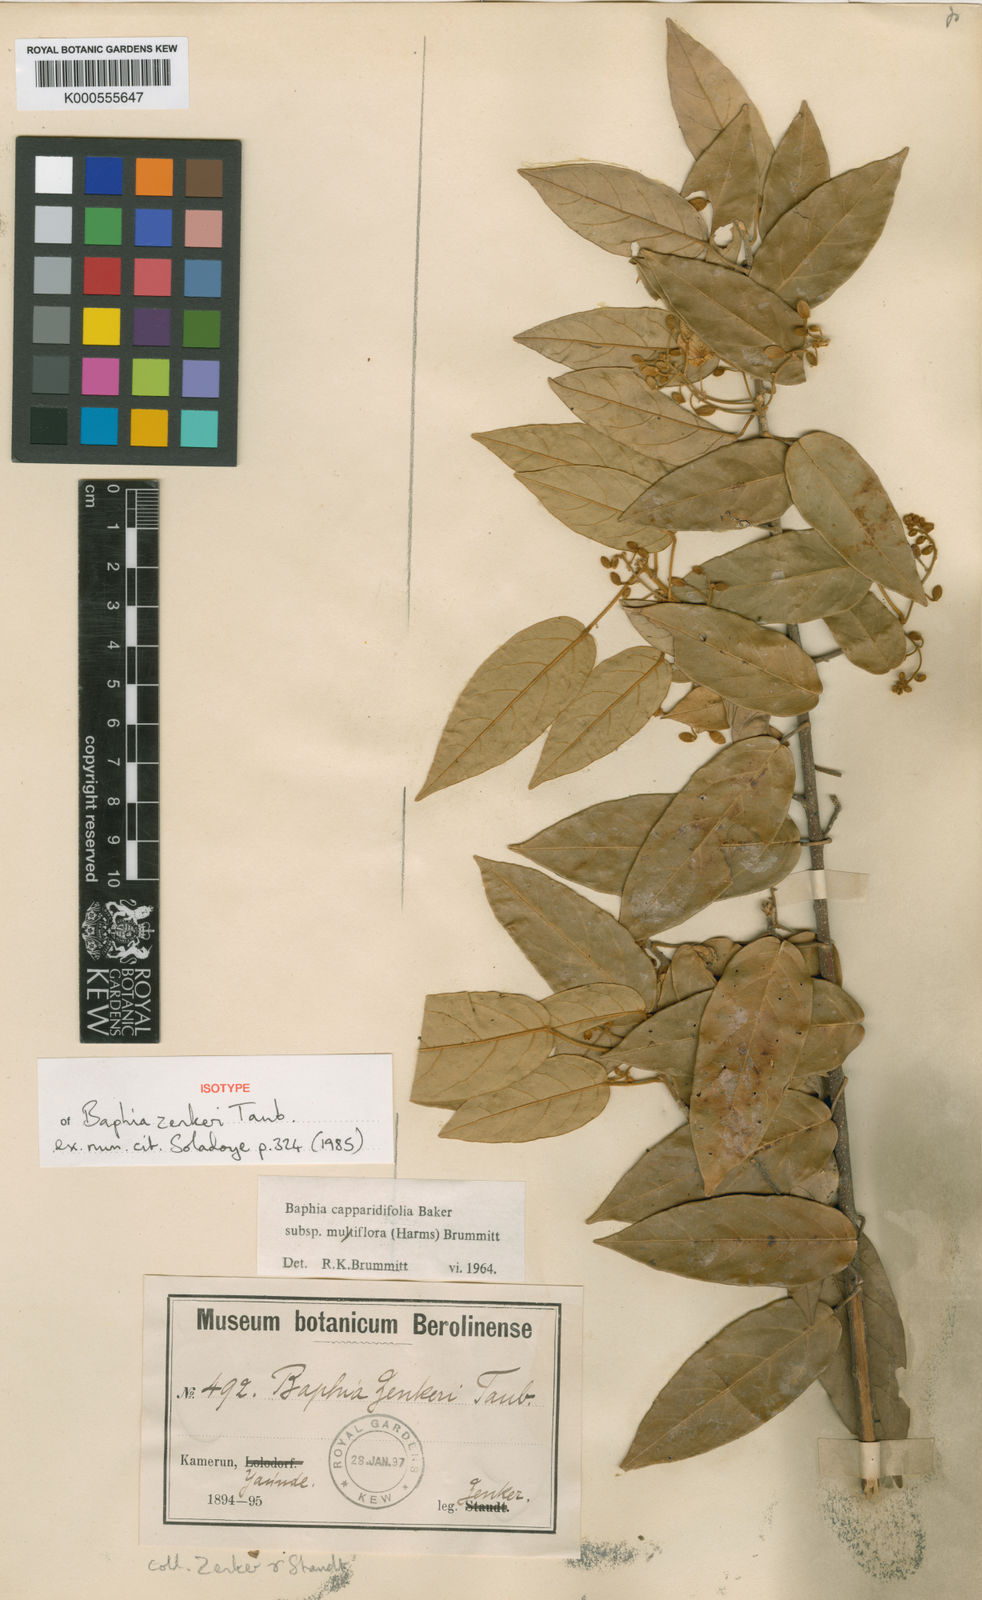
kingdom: Plantae
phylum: Tracheophyta
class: Magnoliopsida
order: Fabales
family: Fabaceae
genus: Baphia
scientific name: Baphia capparidifolia
